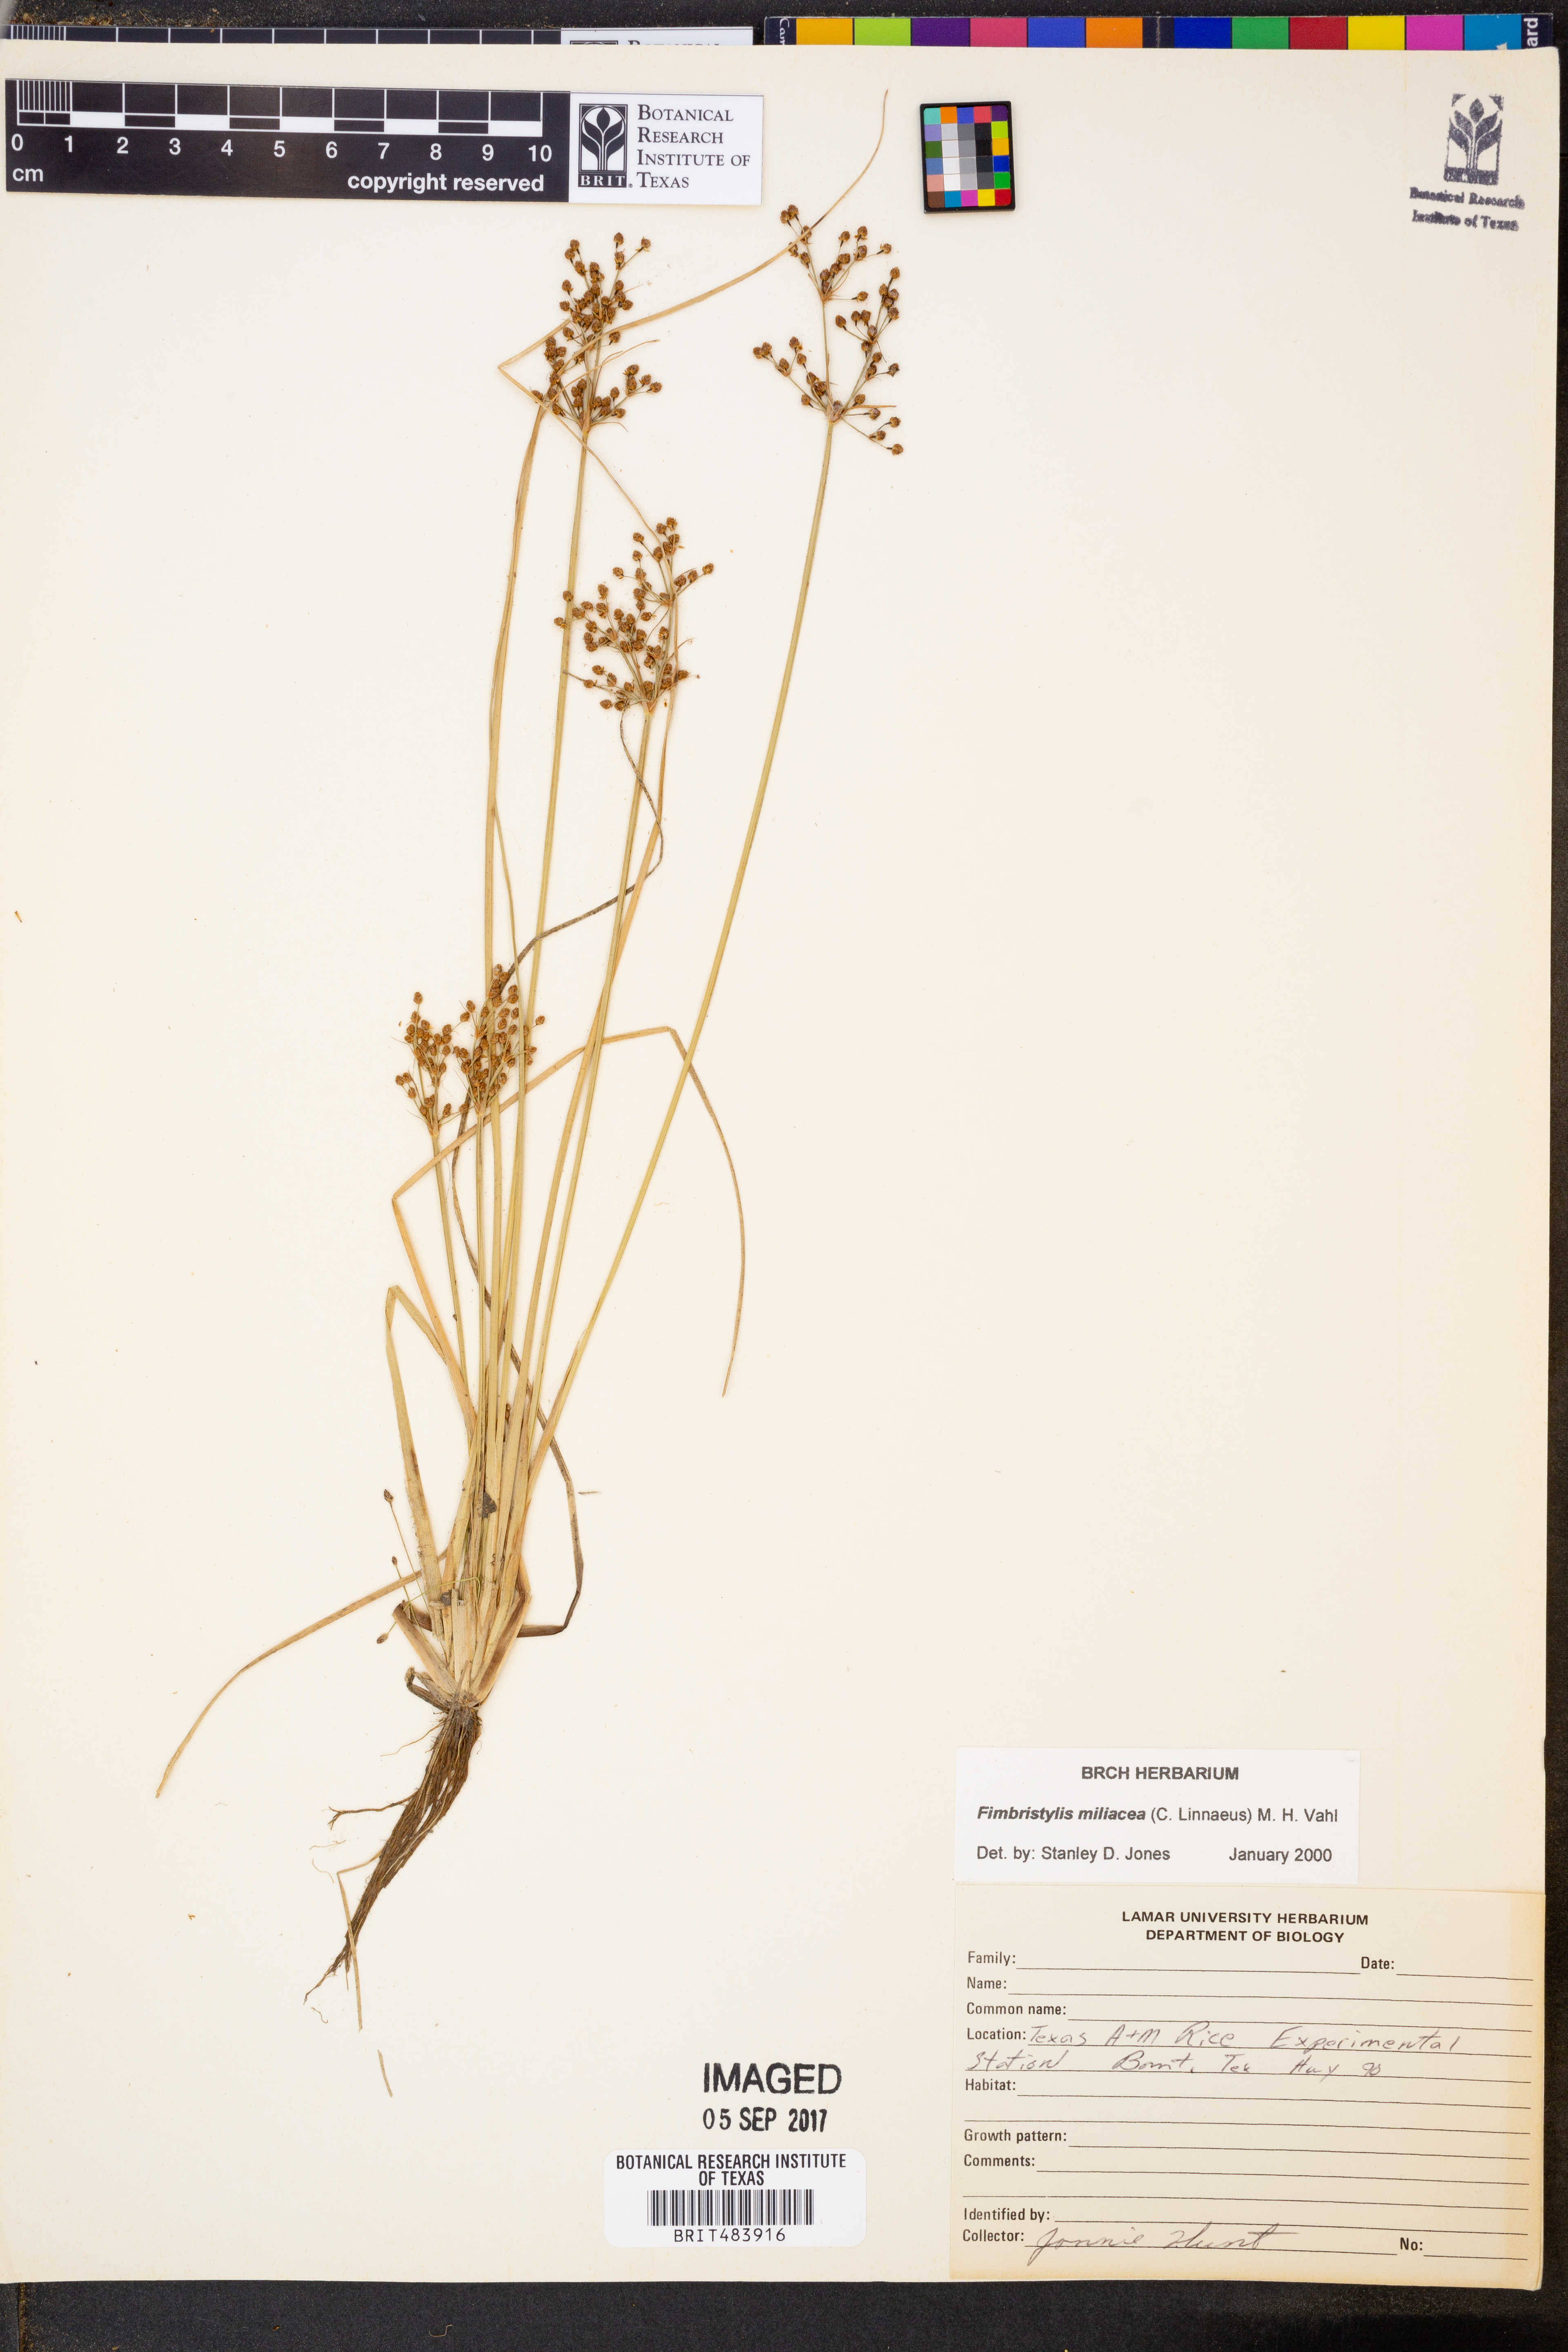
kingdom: Plantae
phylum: Tracheophyta
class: Liliopsida
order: Poales
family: Cyperaceae
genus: Fimbristylis
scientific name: Fimbristylis quinquangularis
